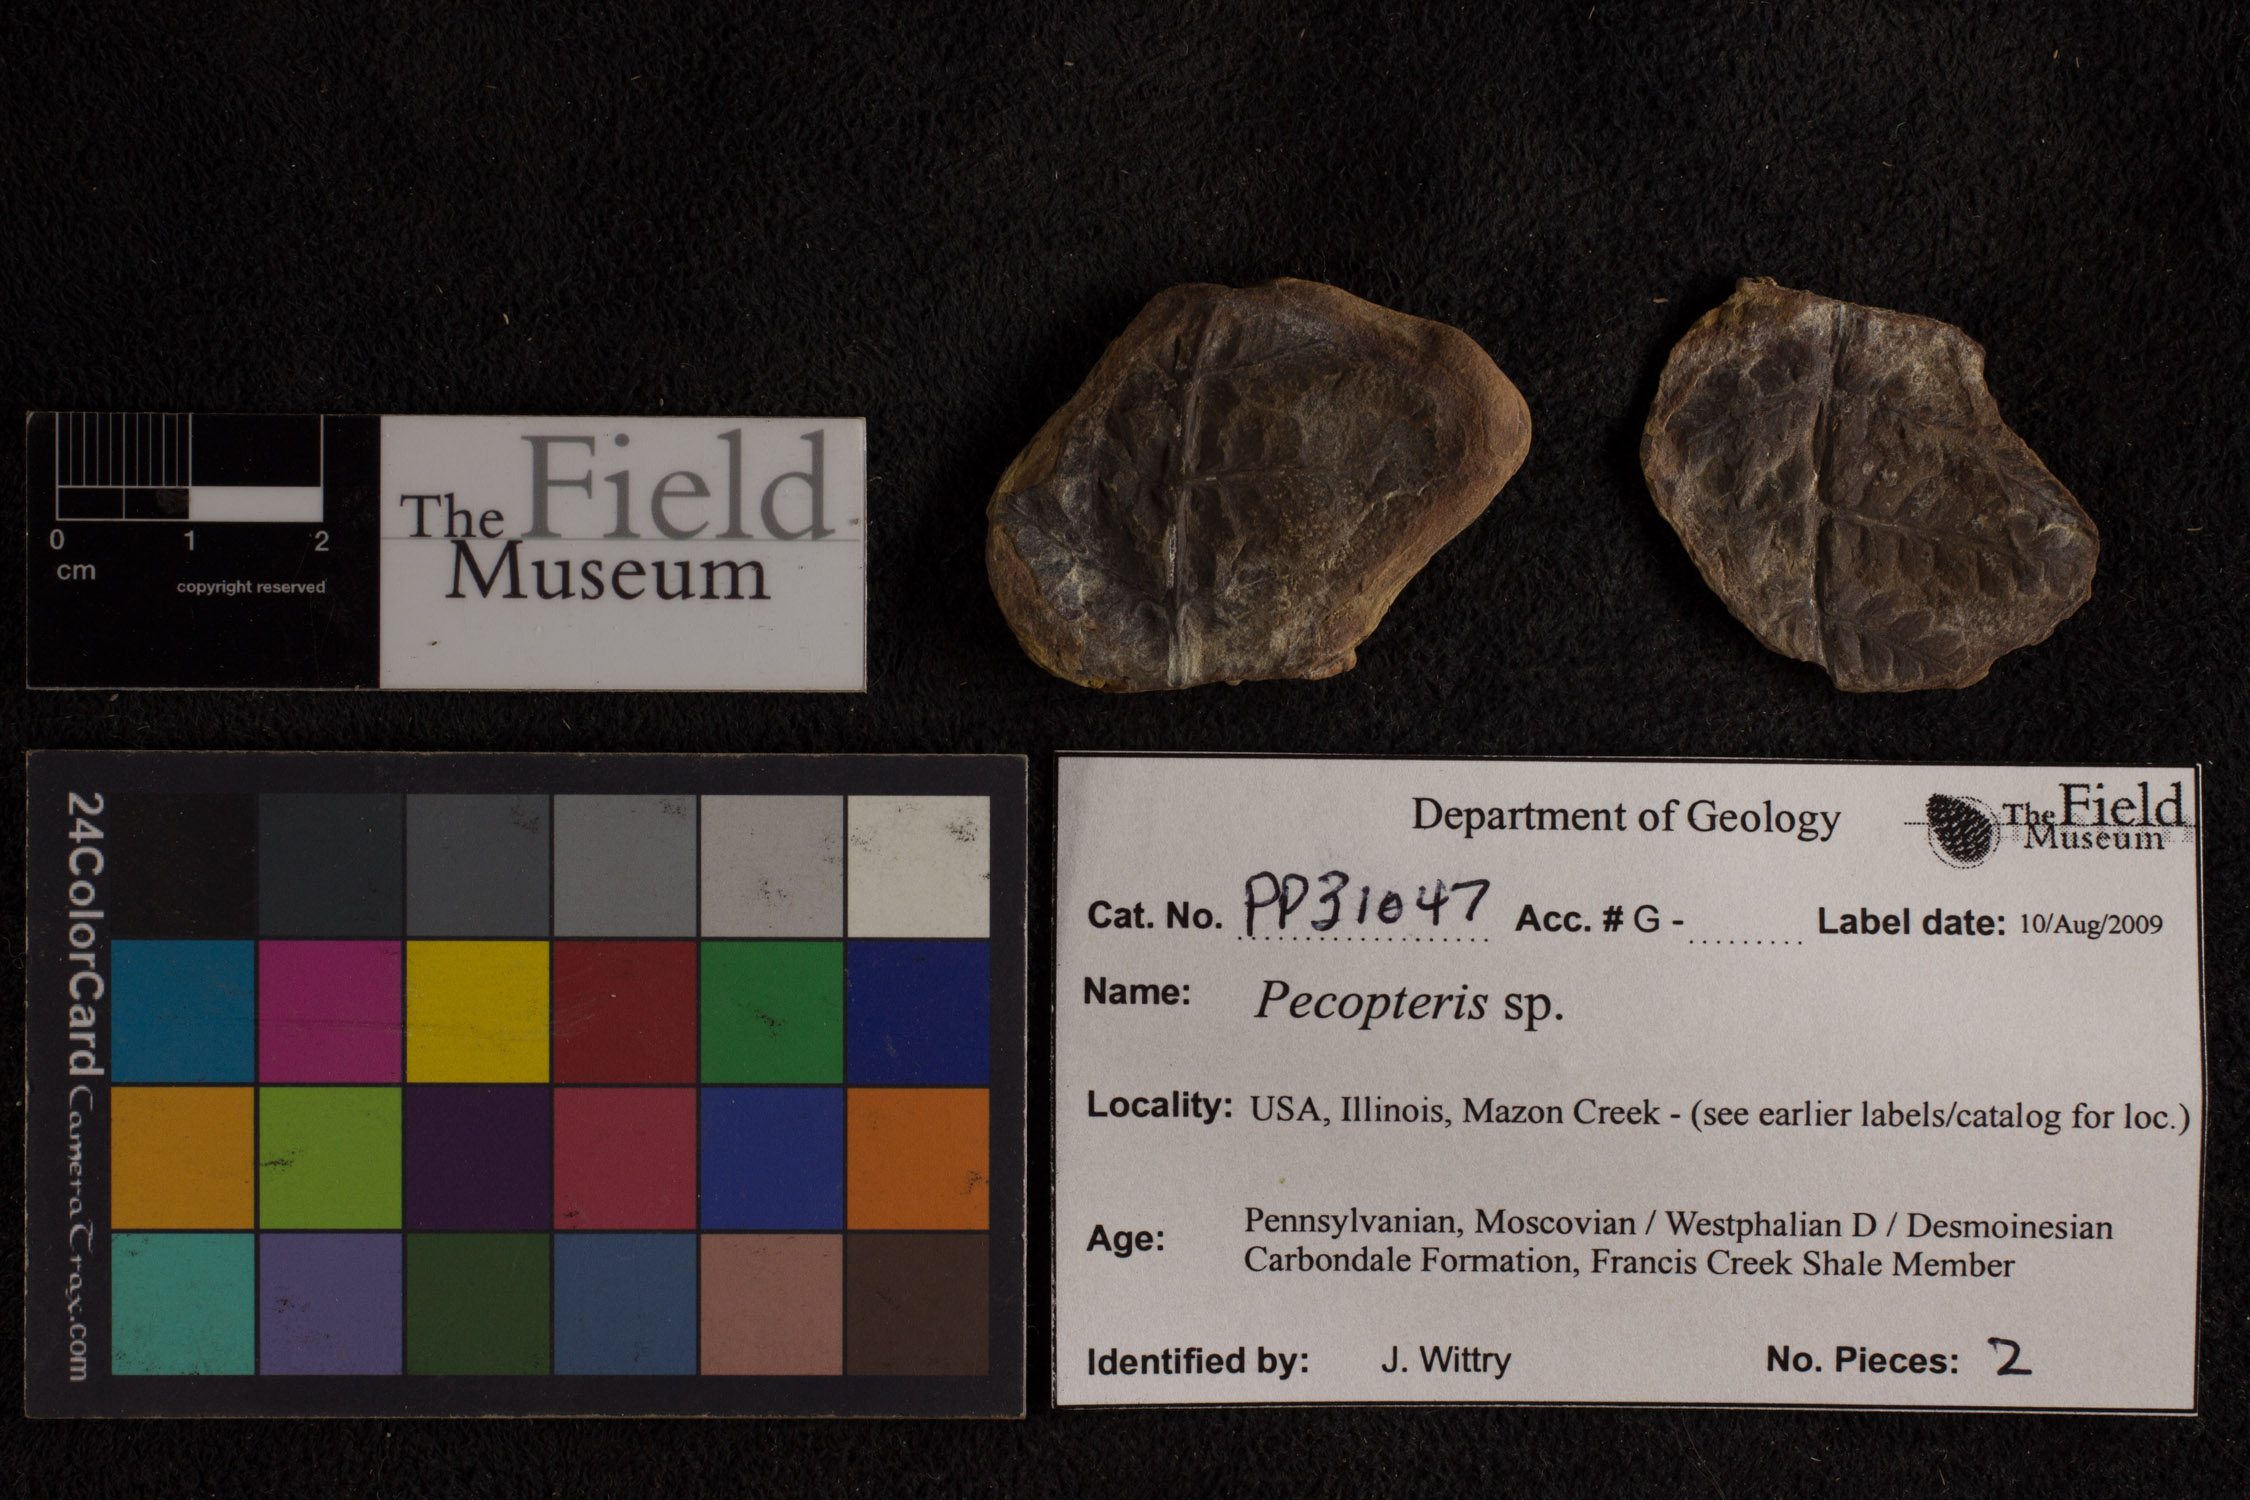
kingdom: Plantae
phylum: Tracheophyta
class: Polypodiopsida
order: Marattiales
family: Asterothecaceae
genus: Pecopteris
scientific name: Pecopteris
